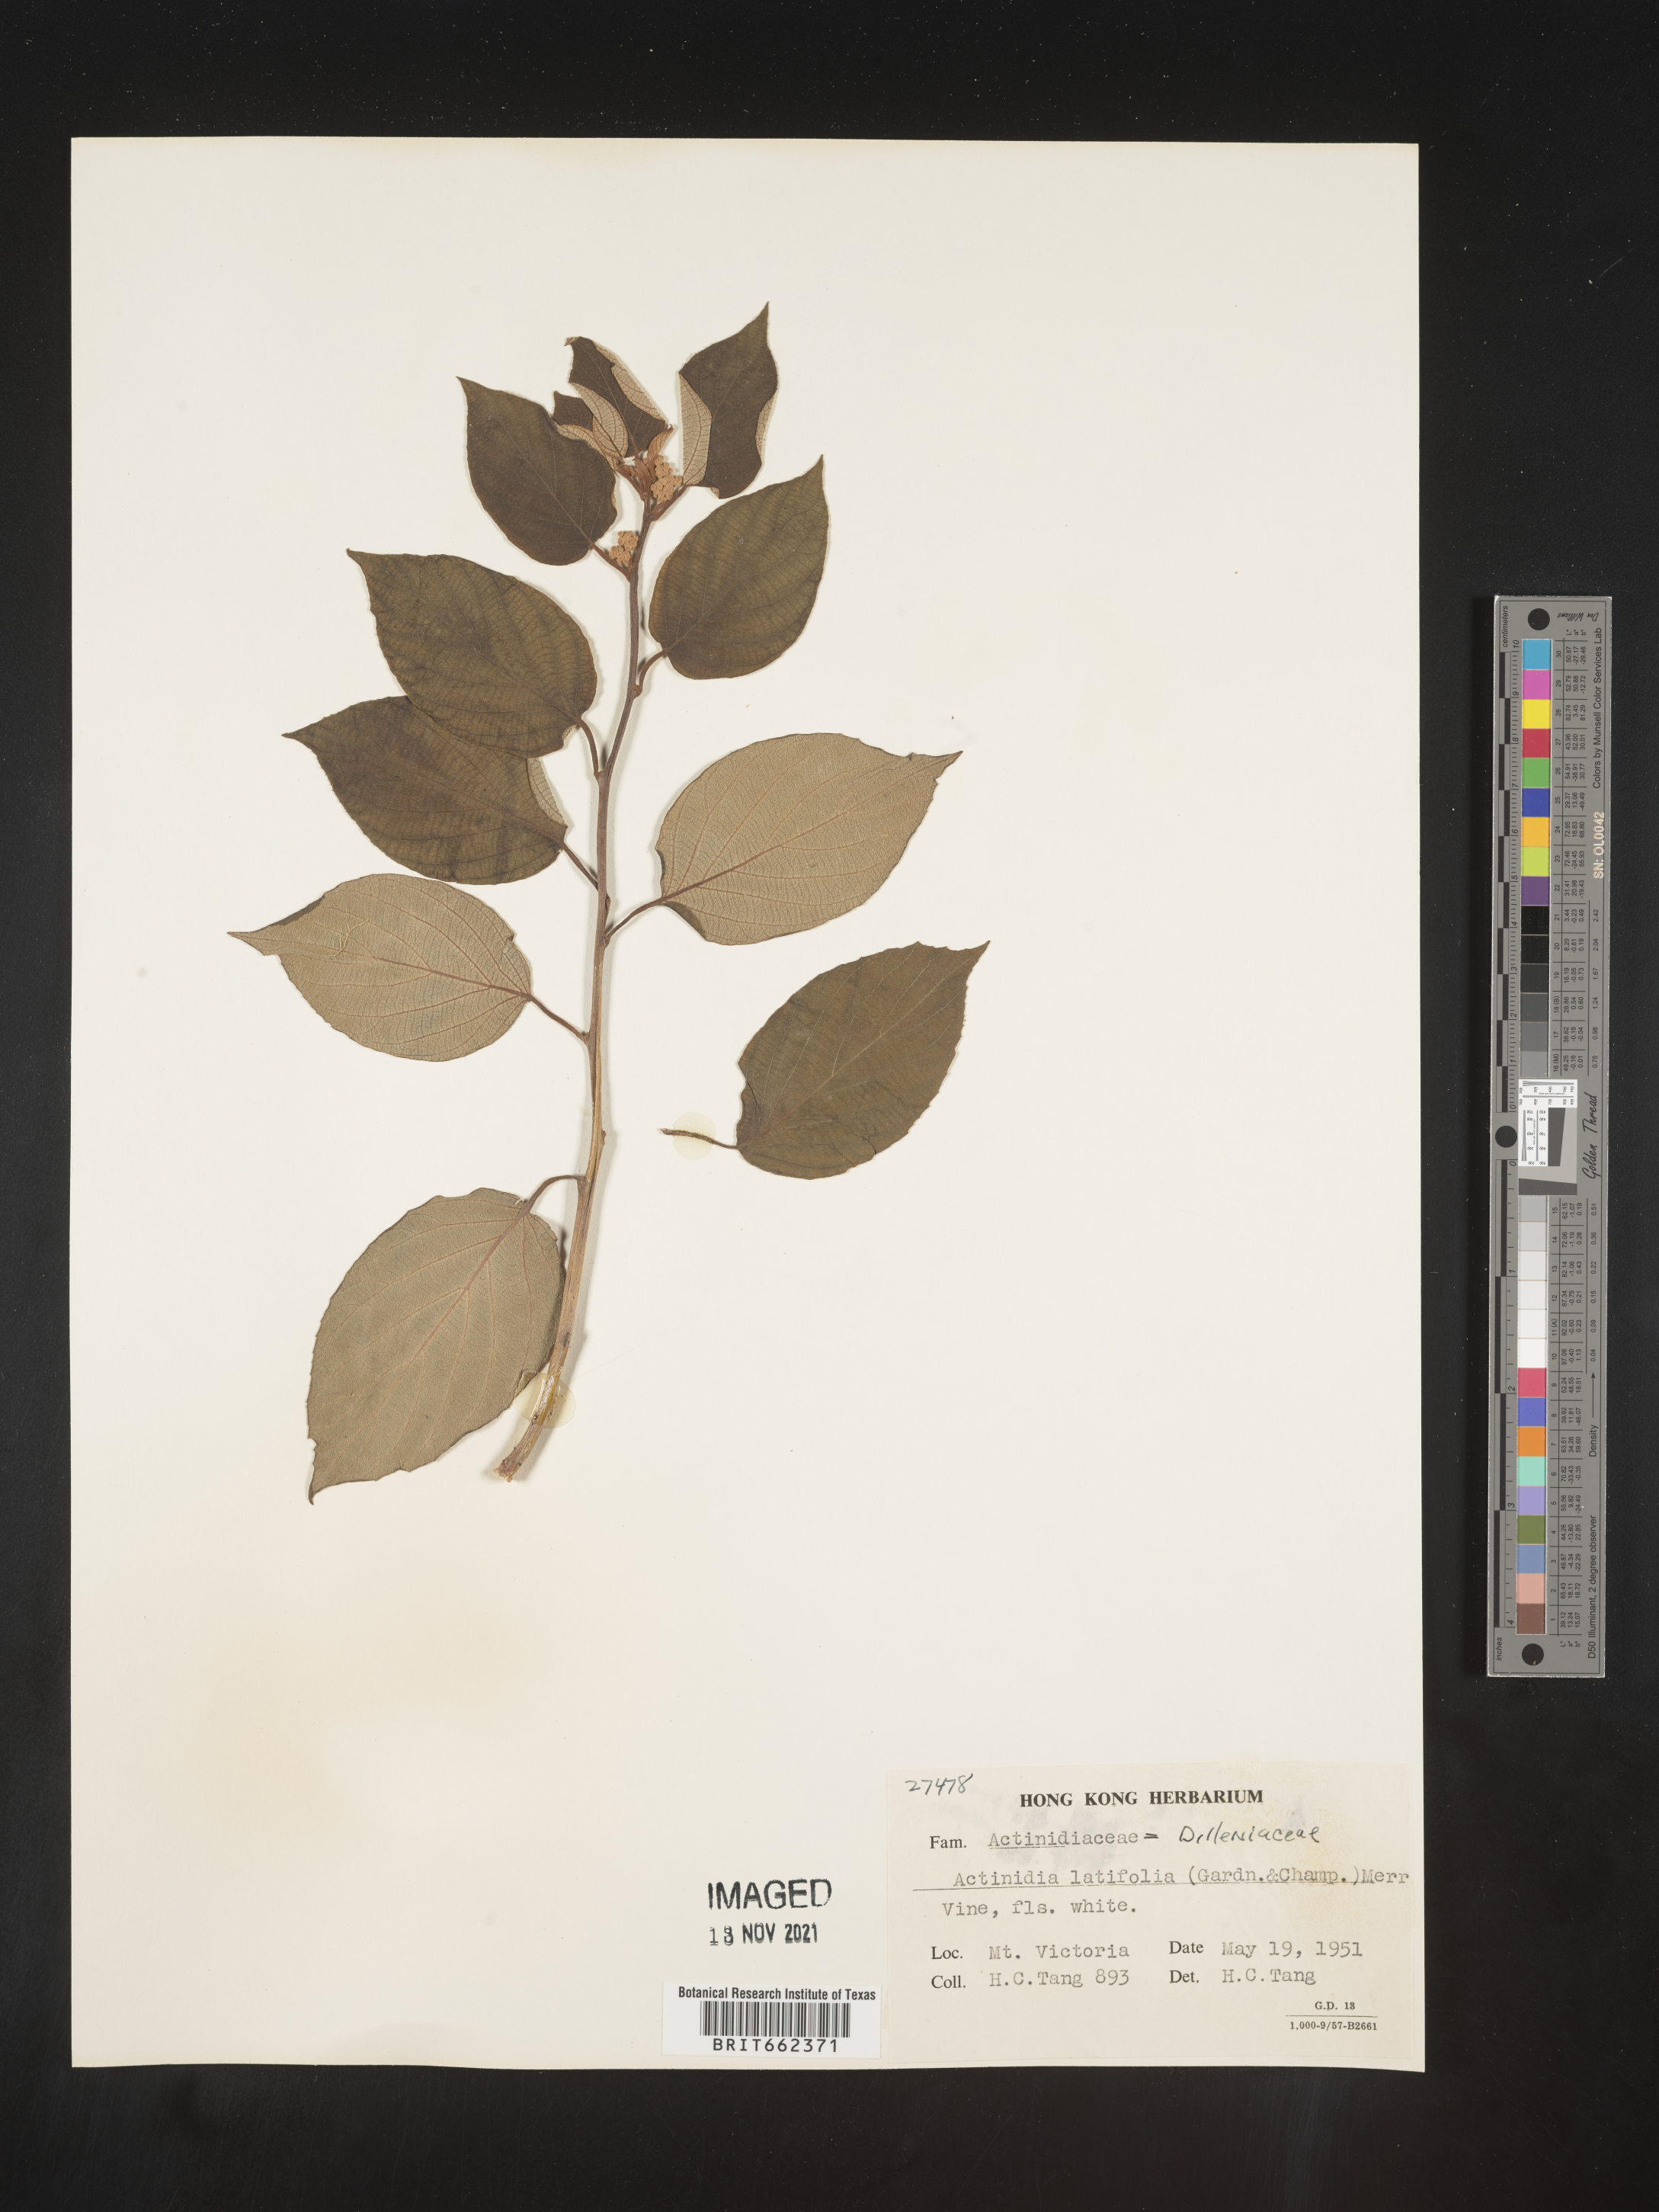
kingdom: Plantae
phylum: Tracheophyta
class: Magnoliopsida
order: Ericales
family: Actinidiaceae
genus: Actinidia
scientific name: Actinidia
